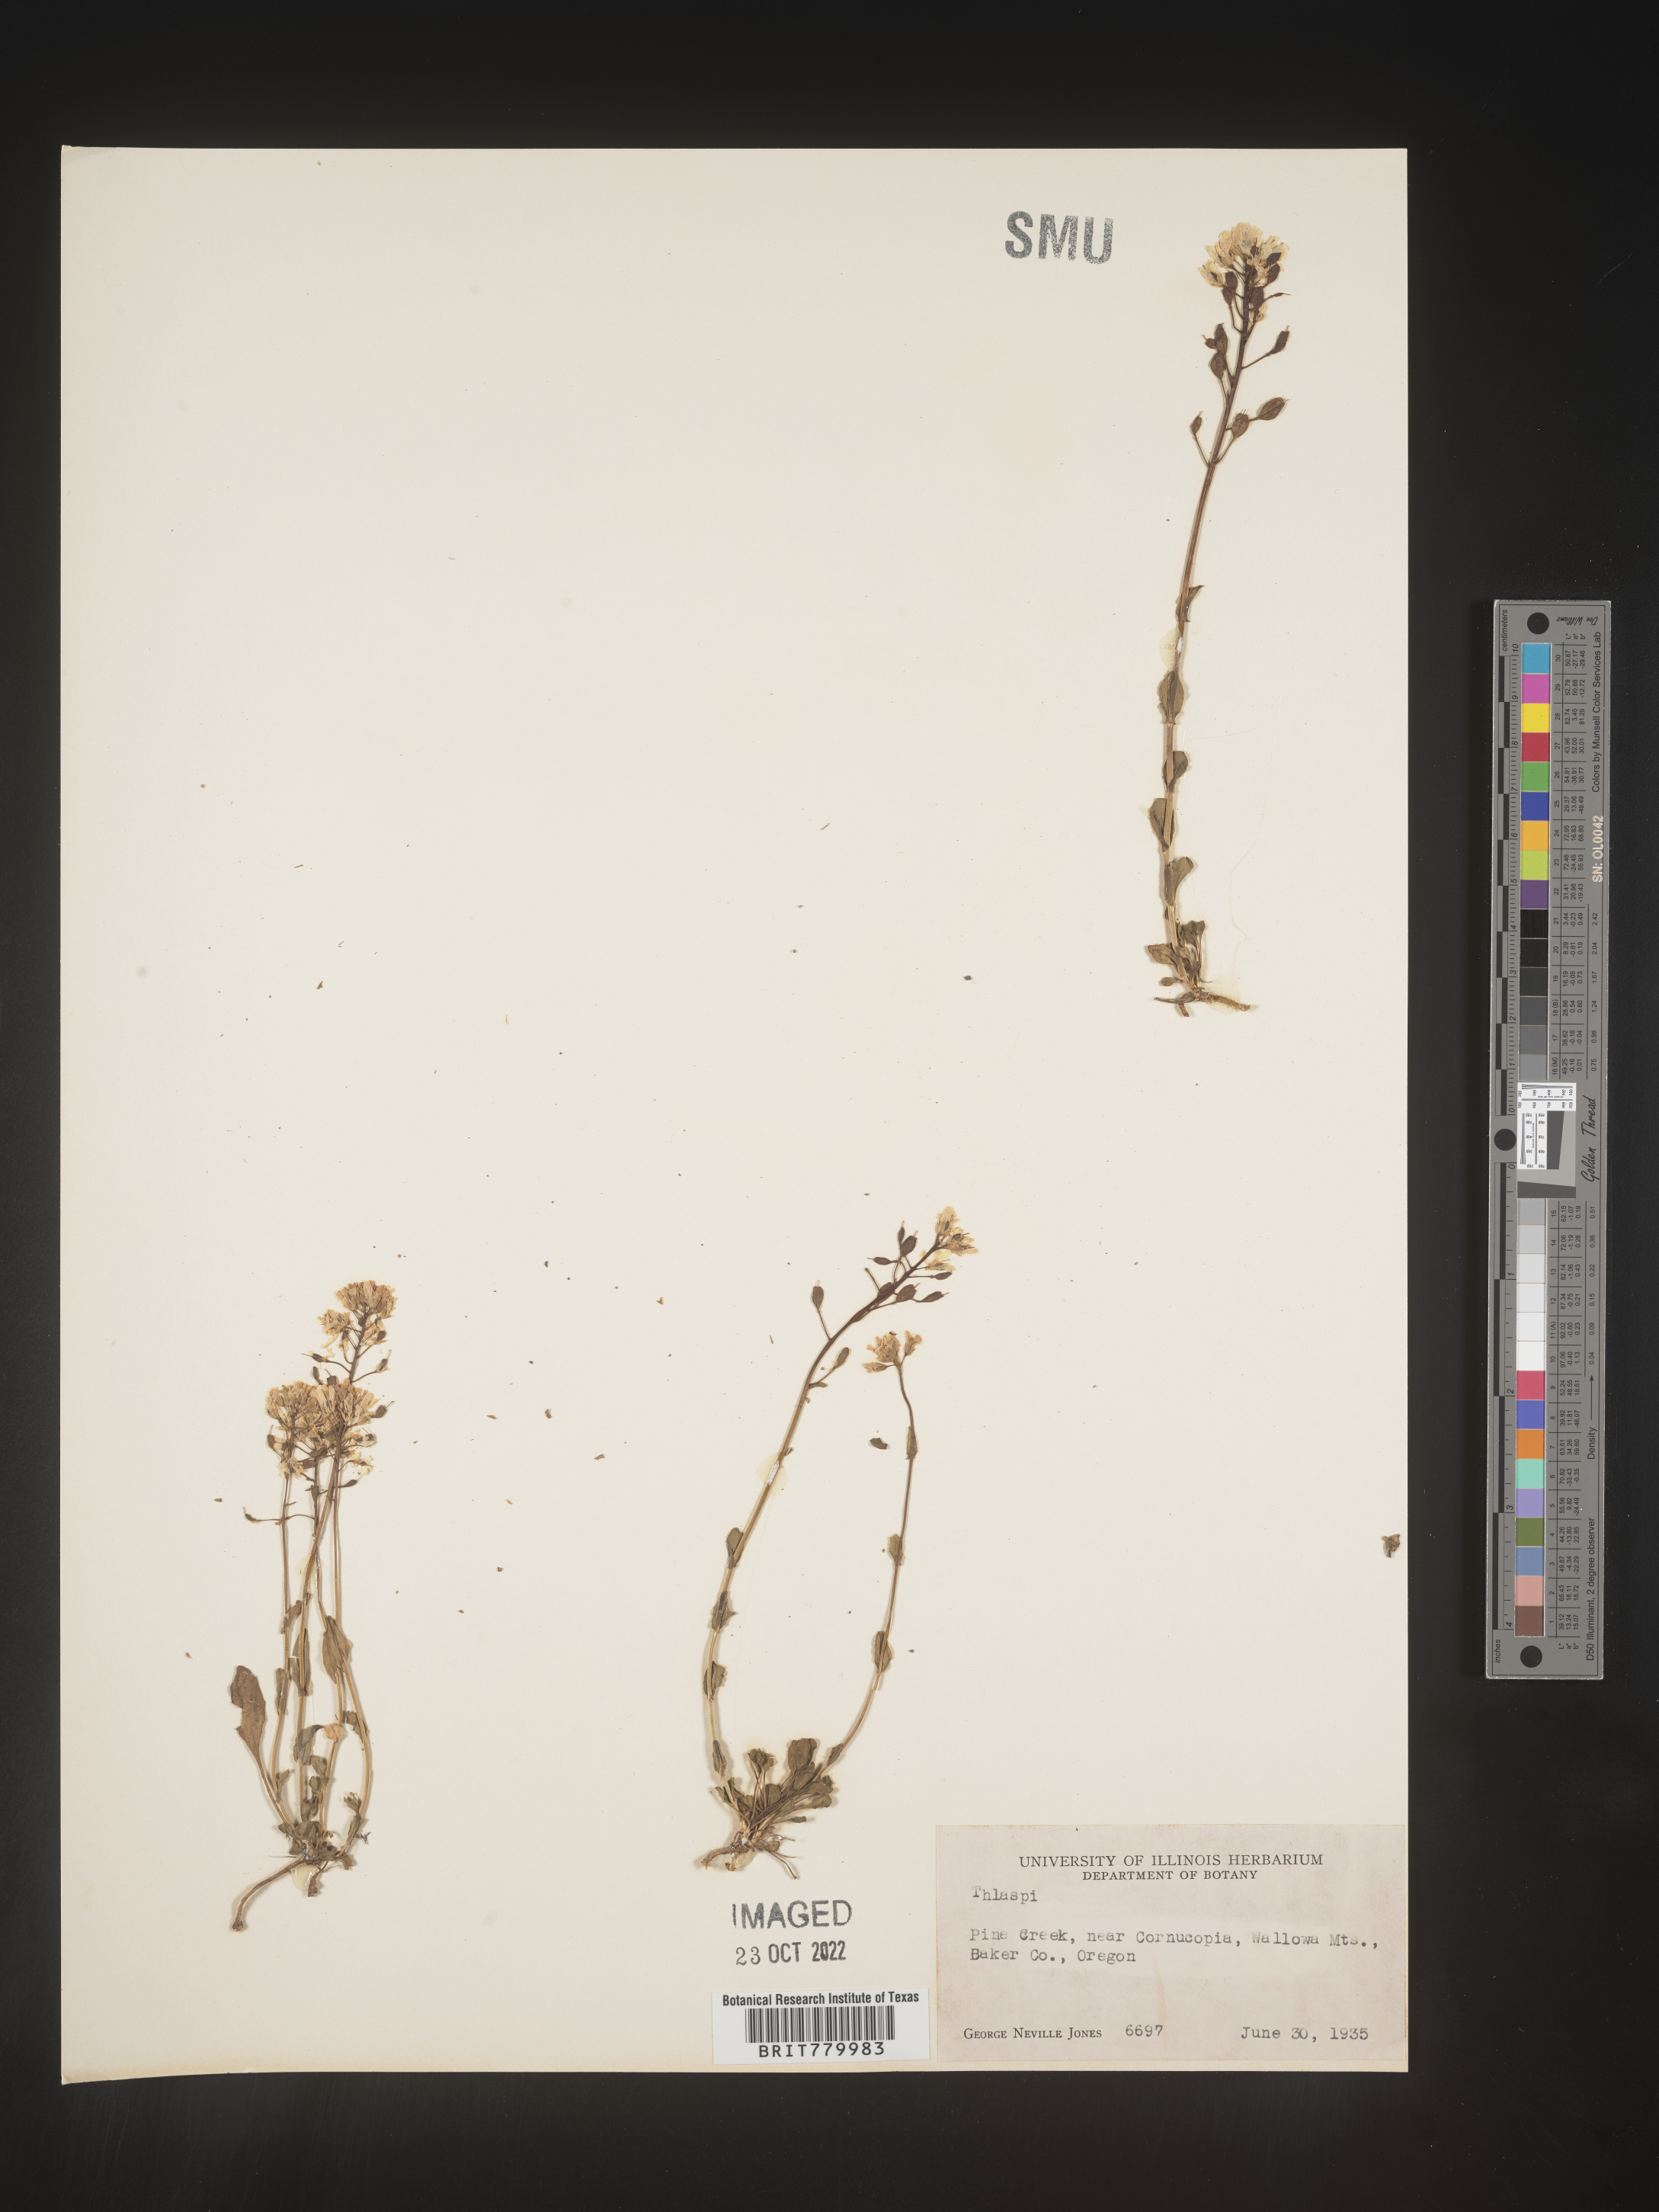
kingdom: Plantae
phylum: Tracheophyta
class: Magnoliopsida
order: Brassicales
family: Brassicaceae
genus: Thlaspi
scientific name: Thlaspi
